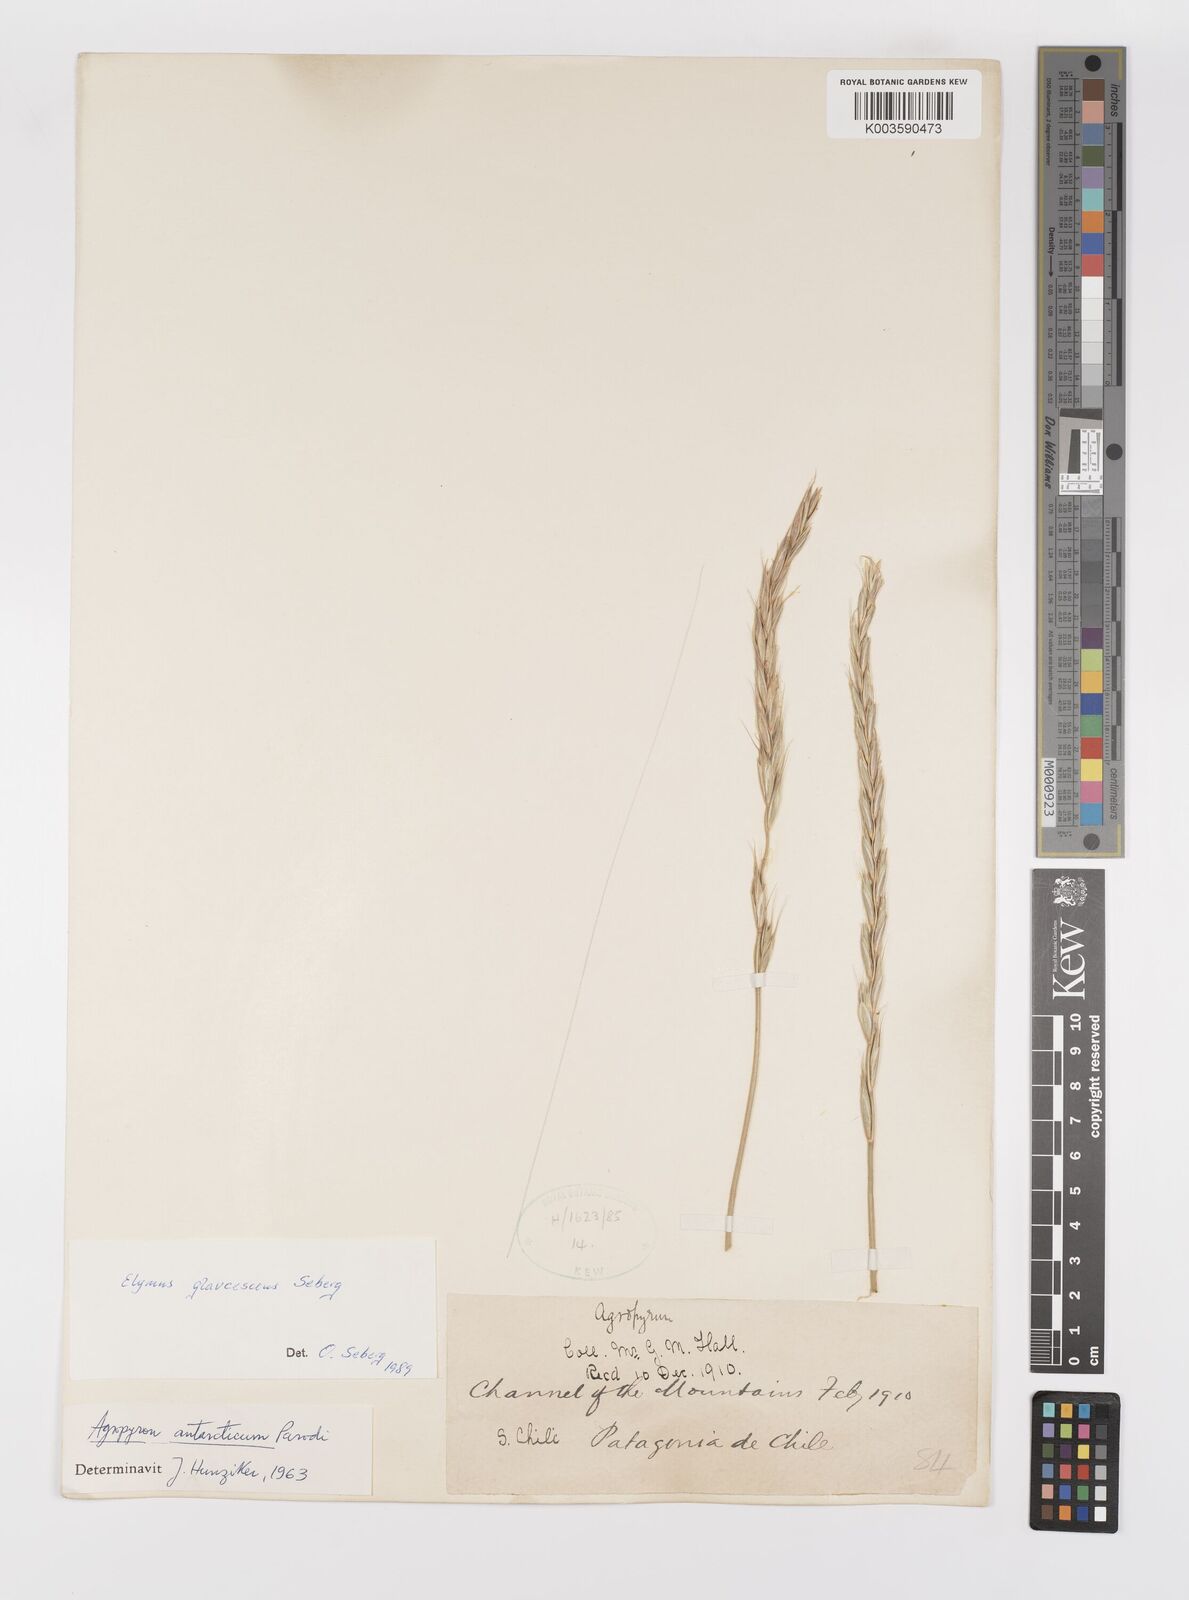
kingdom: Plantae
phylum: Tracheophyta
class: Liliopsida
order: Poales
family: Poaceae
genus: Elymus
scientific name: Elymus magellanicus
